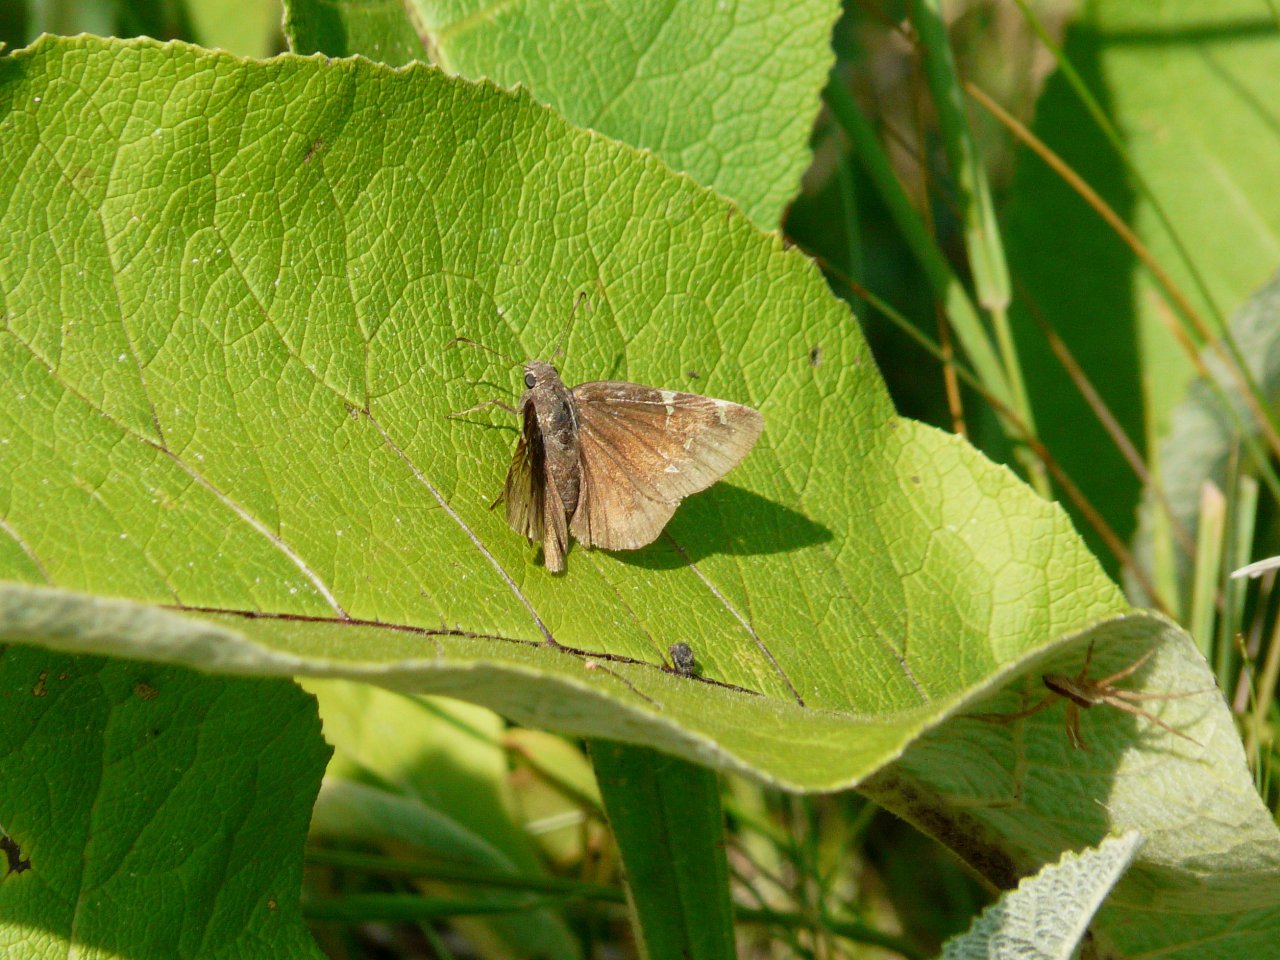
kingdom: Animalia
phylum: Arthropoda
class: Insecta
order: Lepidoptera
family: Hesperiidae
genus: Autochton
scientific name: Autochton
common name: Northern Cloudywing
